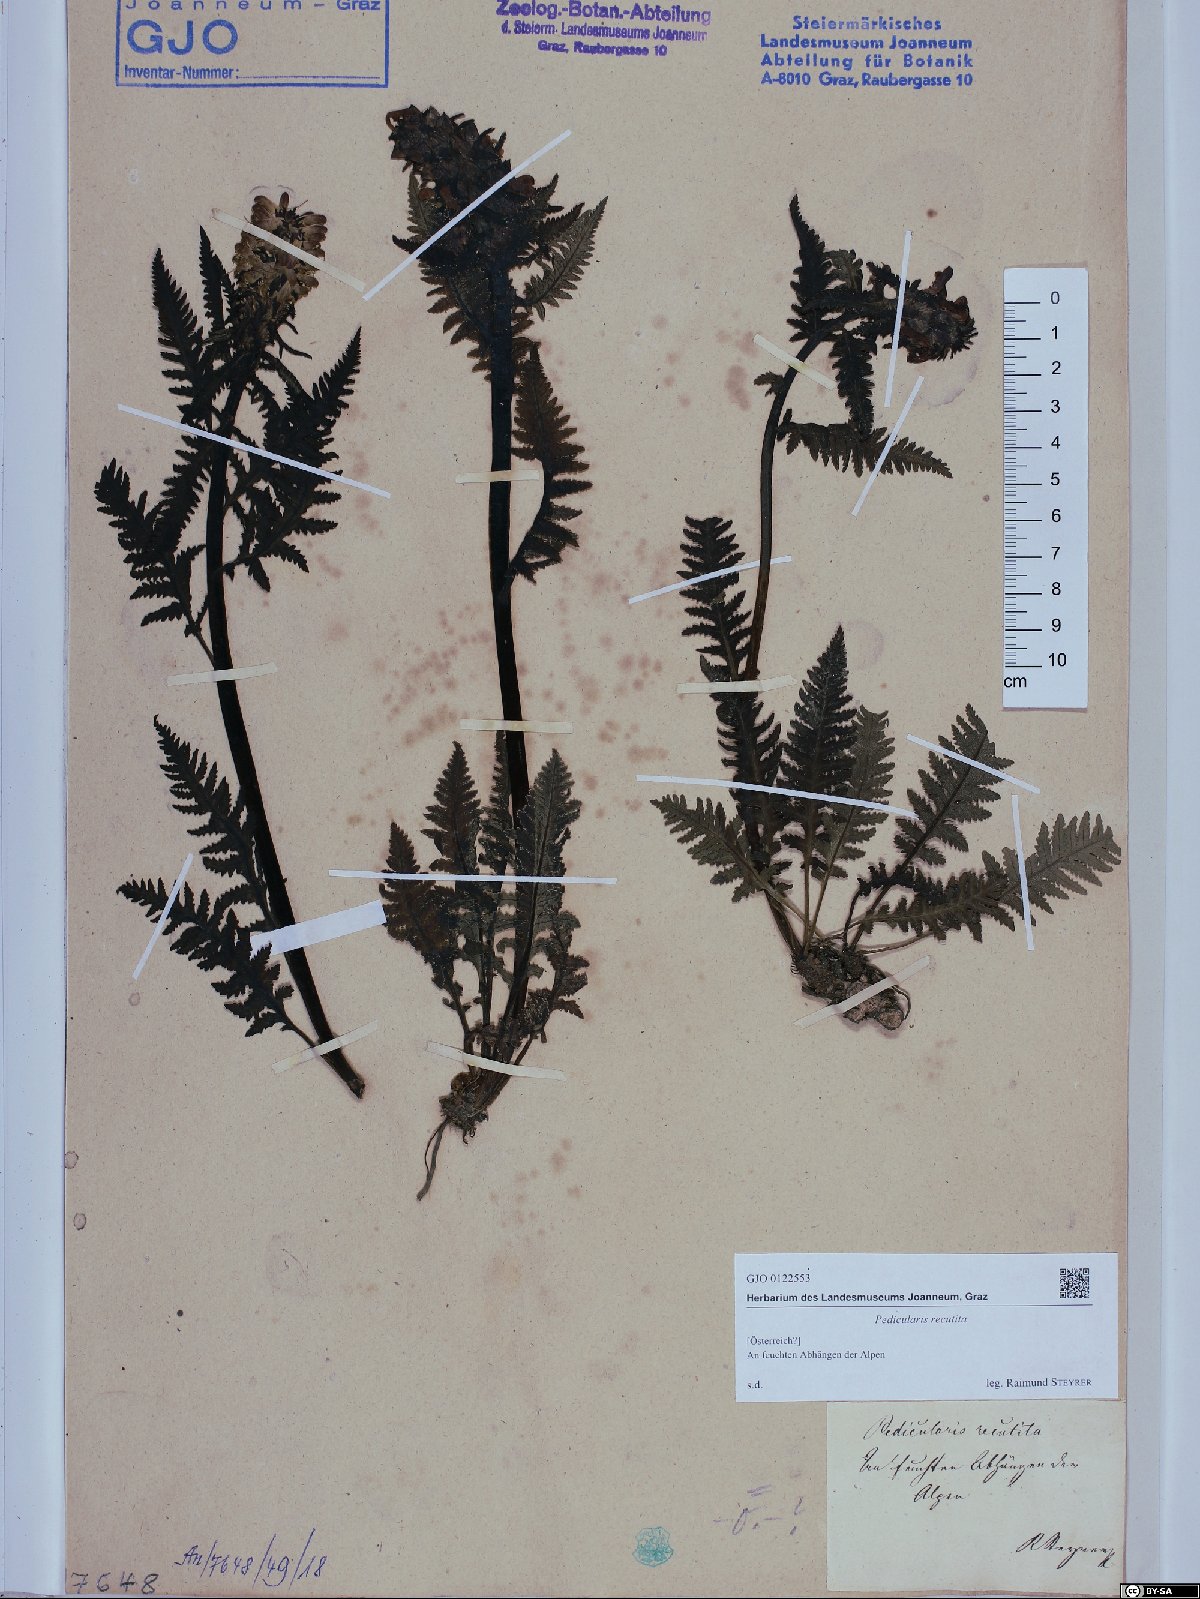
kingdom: Plantae
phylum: Tracheophyta
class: Magnoliopsida
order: Lamiales
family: Orobanchaceae
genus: Pedicularis
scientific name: Pedicularis recutita
